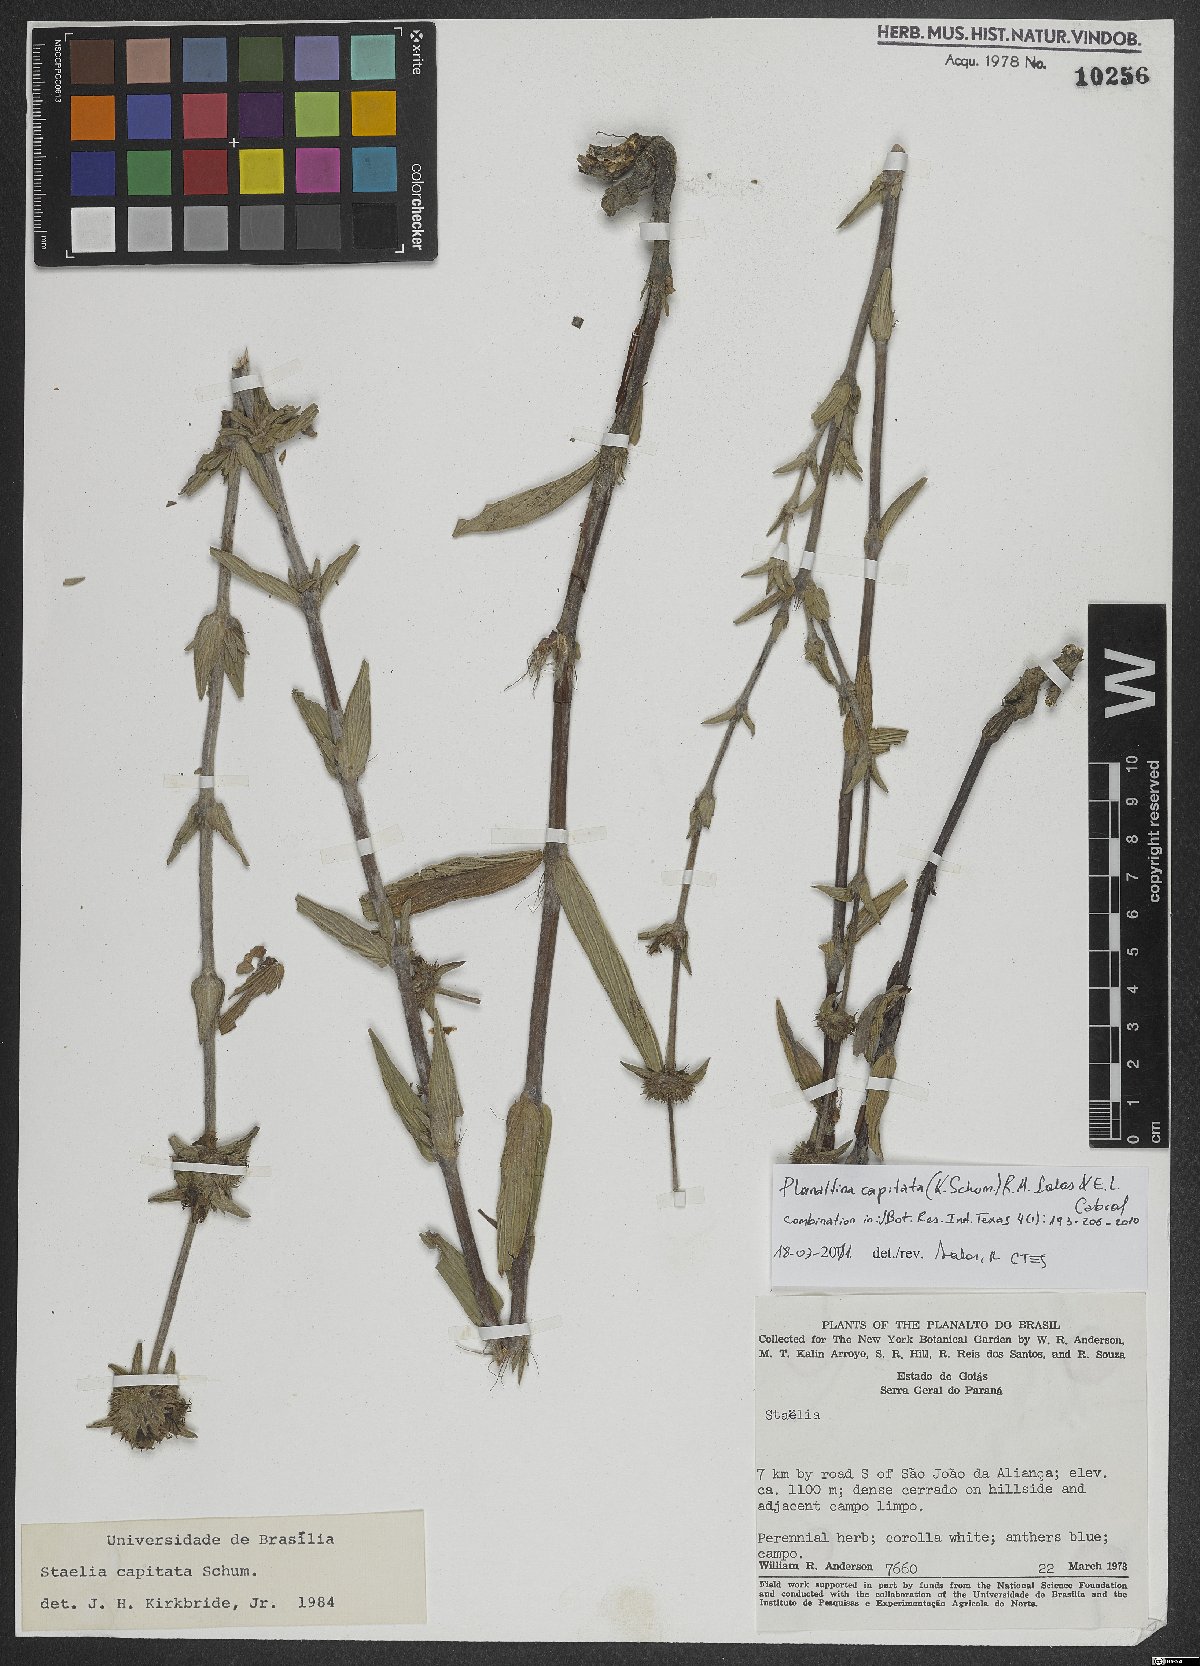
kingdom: Plantae
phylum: Tracheophyta
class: Magnoliopsida
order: Gentianales
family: Rubiaceae
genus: Planaltina
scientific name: Planaltina capitata
